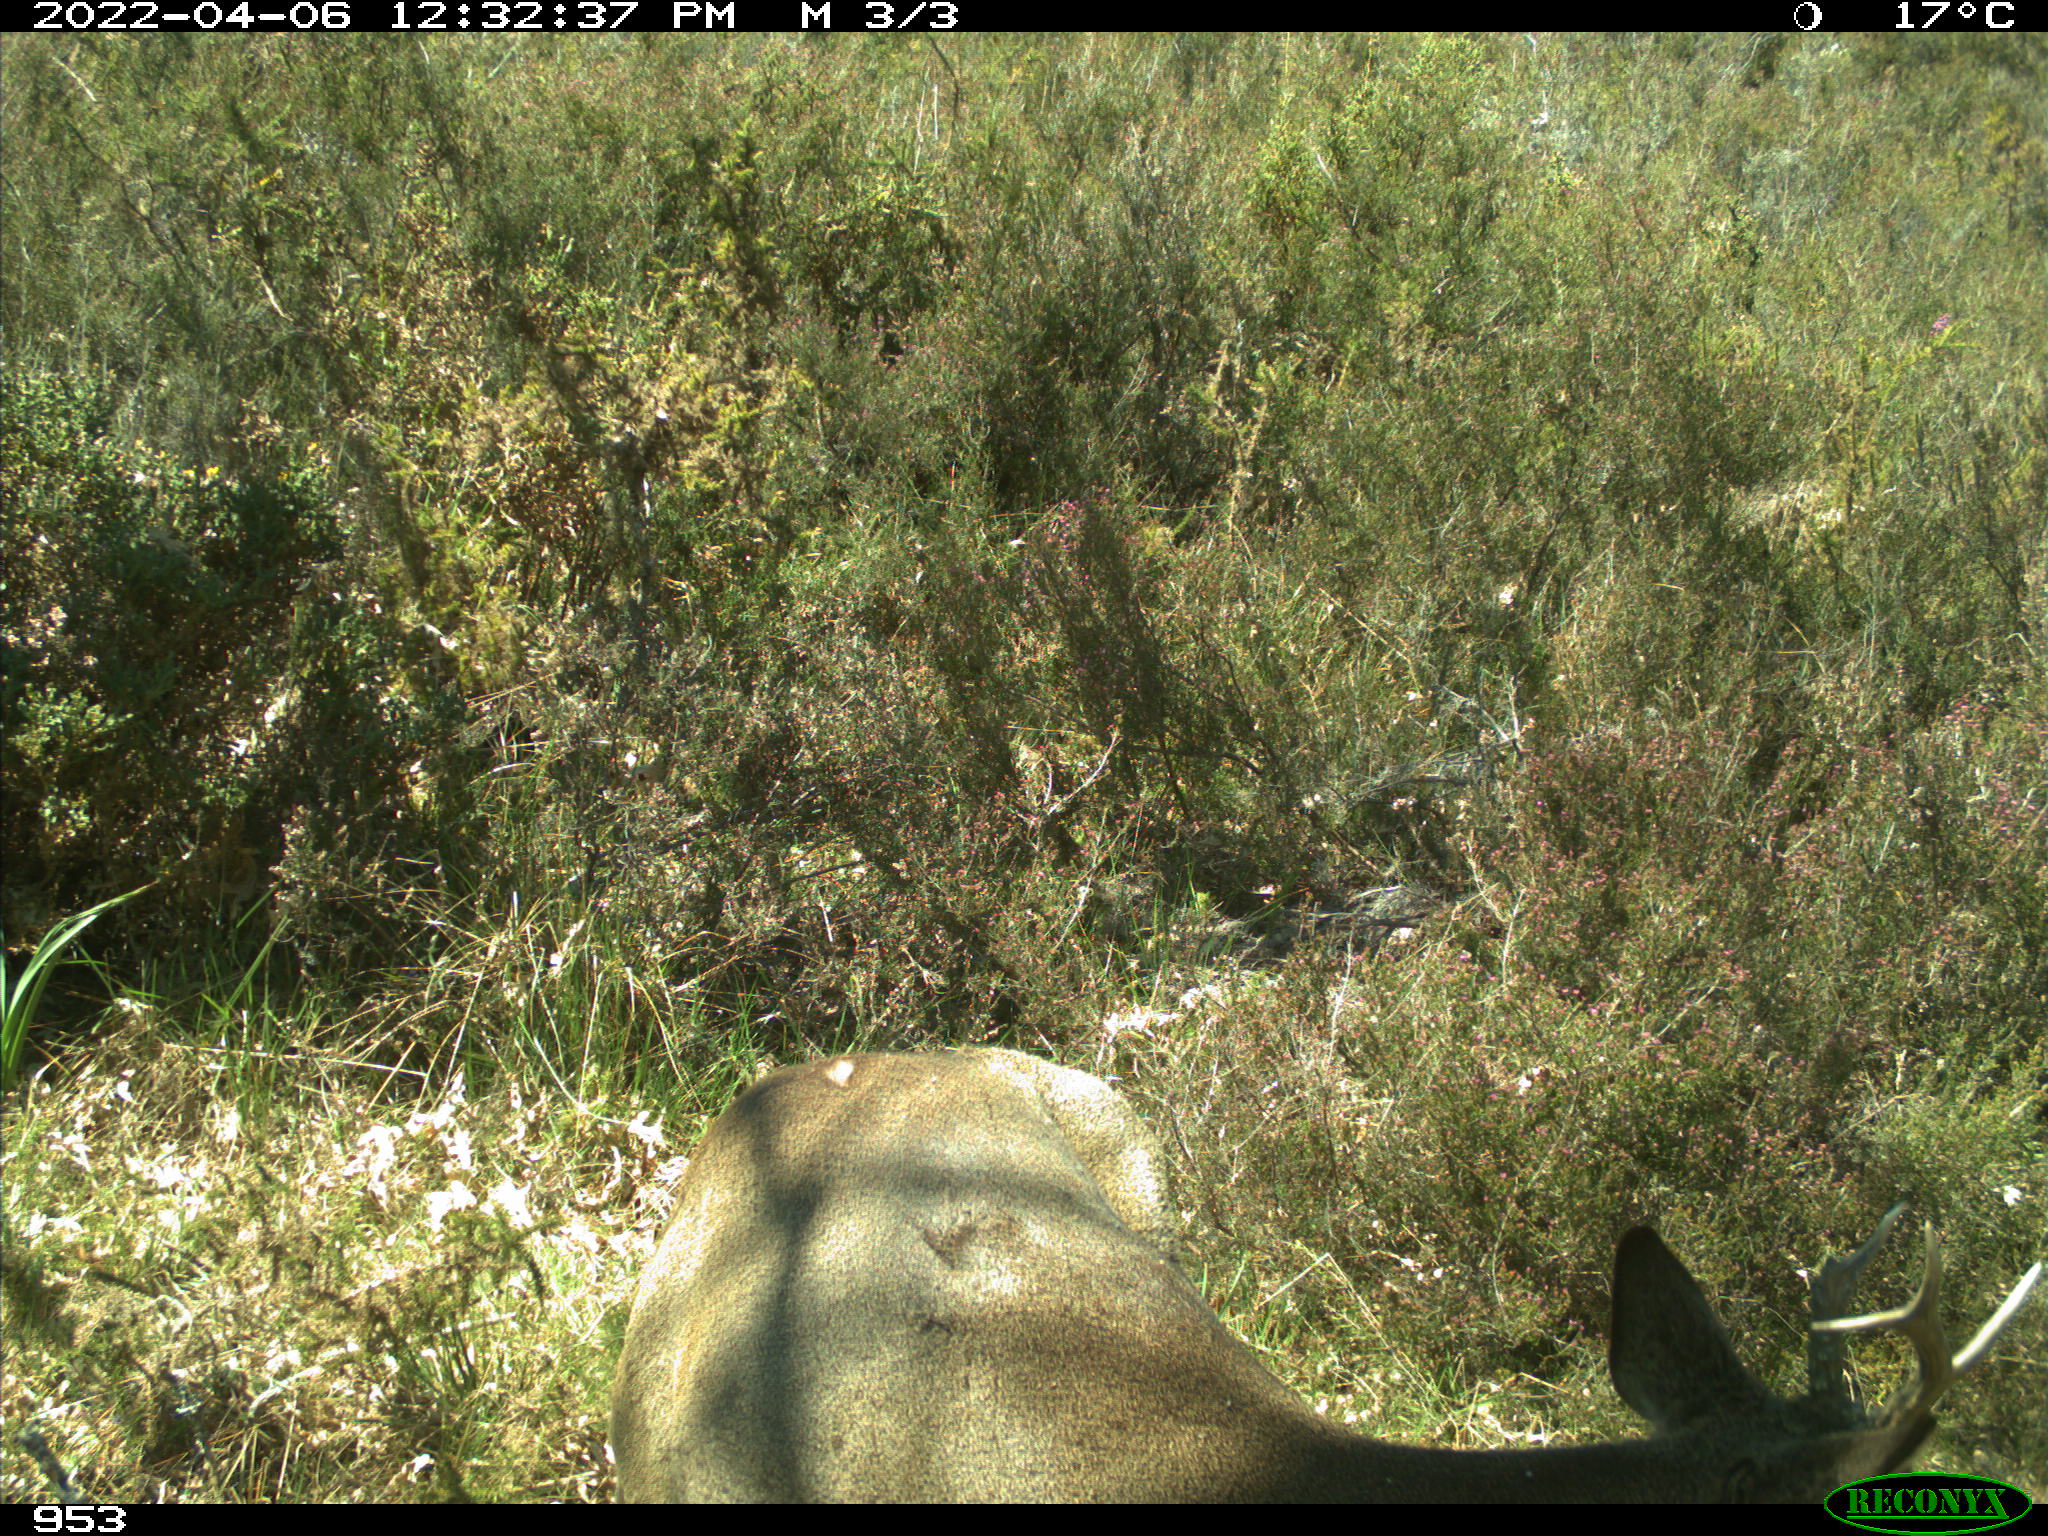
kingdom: Animalia
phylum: Chordata
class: Mammalia
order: Artiodactyla
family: Cervidae
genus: Capreolus
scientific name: Capreolus capreolus
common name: Western roe deer
